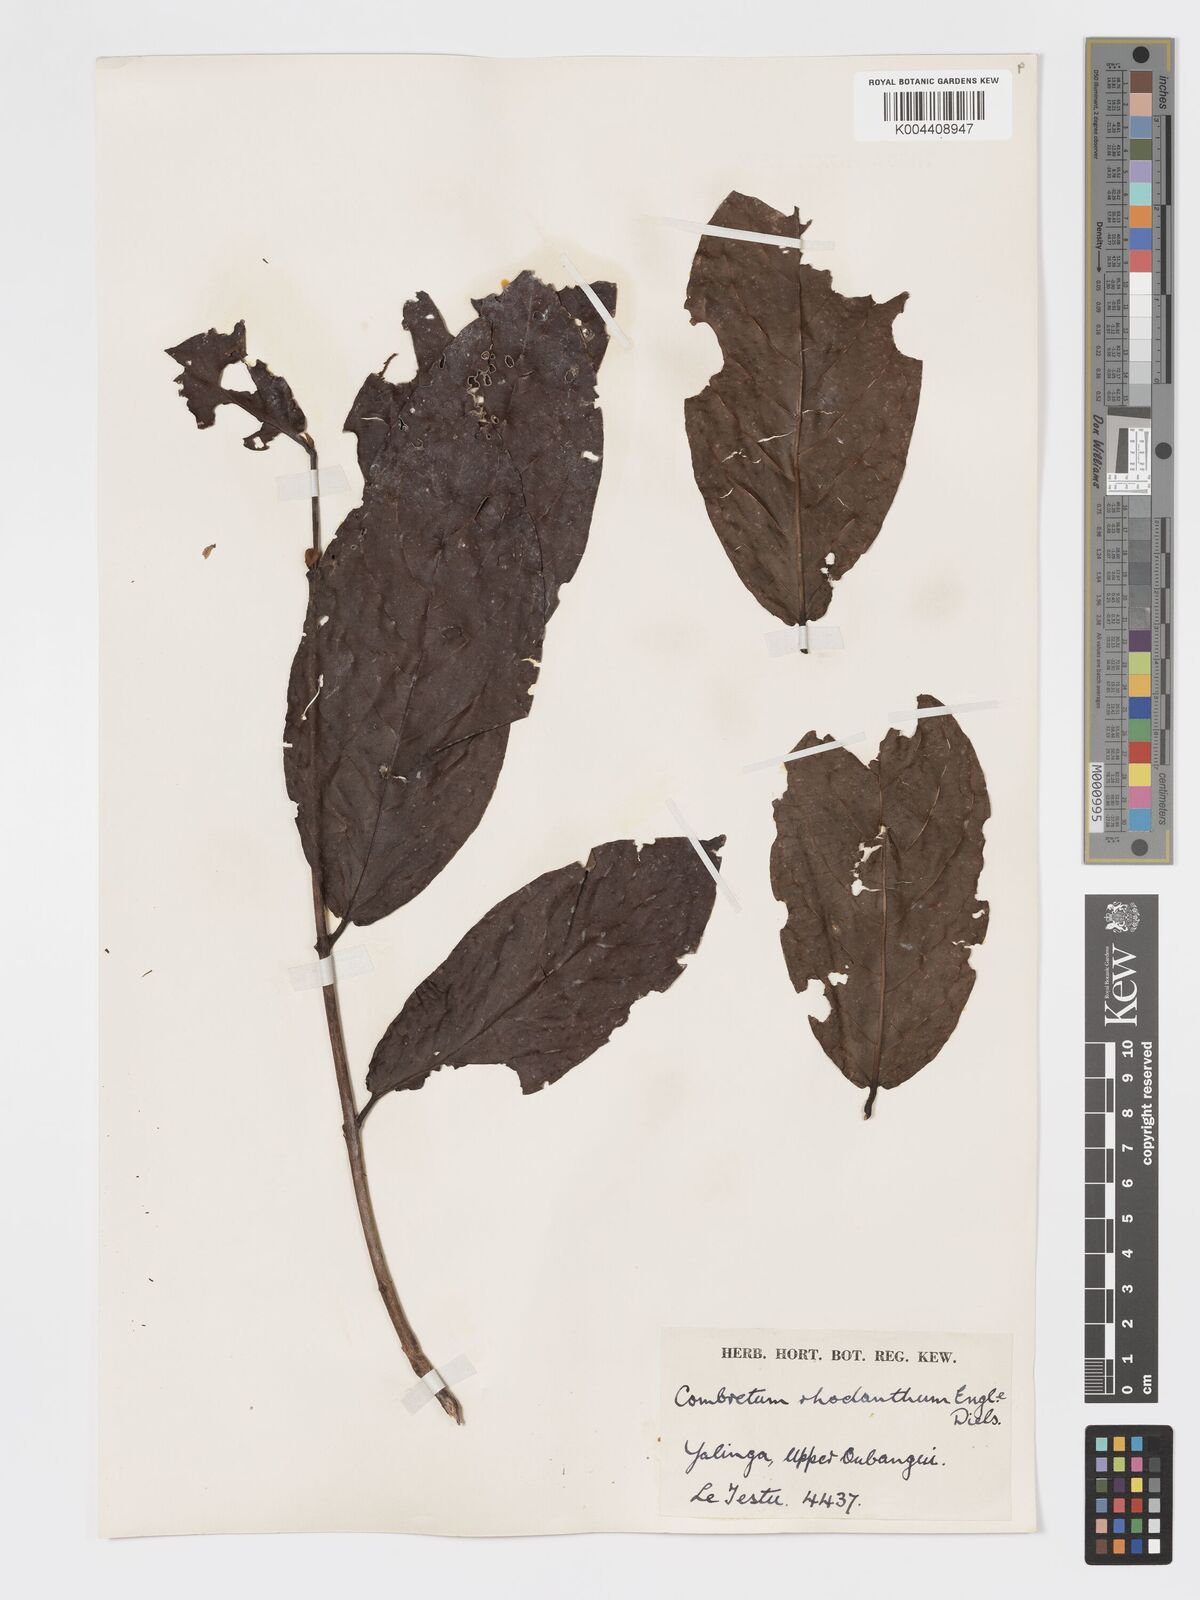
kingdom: Plantae
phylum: Tracheophyta
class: Magnoliopsida
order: Myrtales
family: Combretaceae
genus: Combretum
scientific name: Combretum comosum
